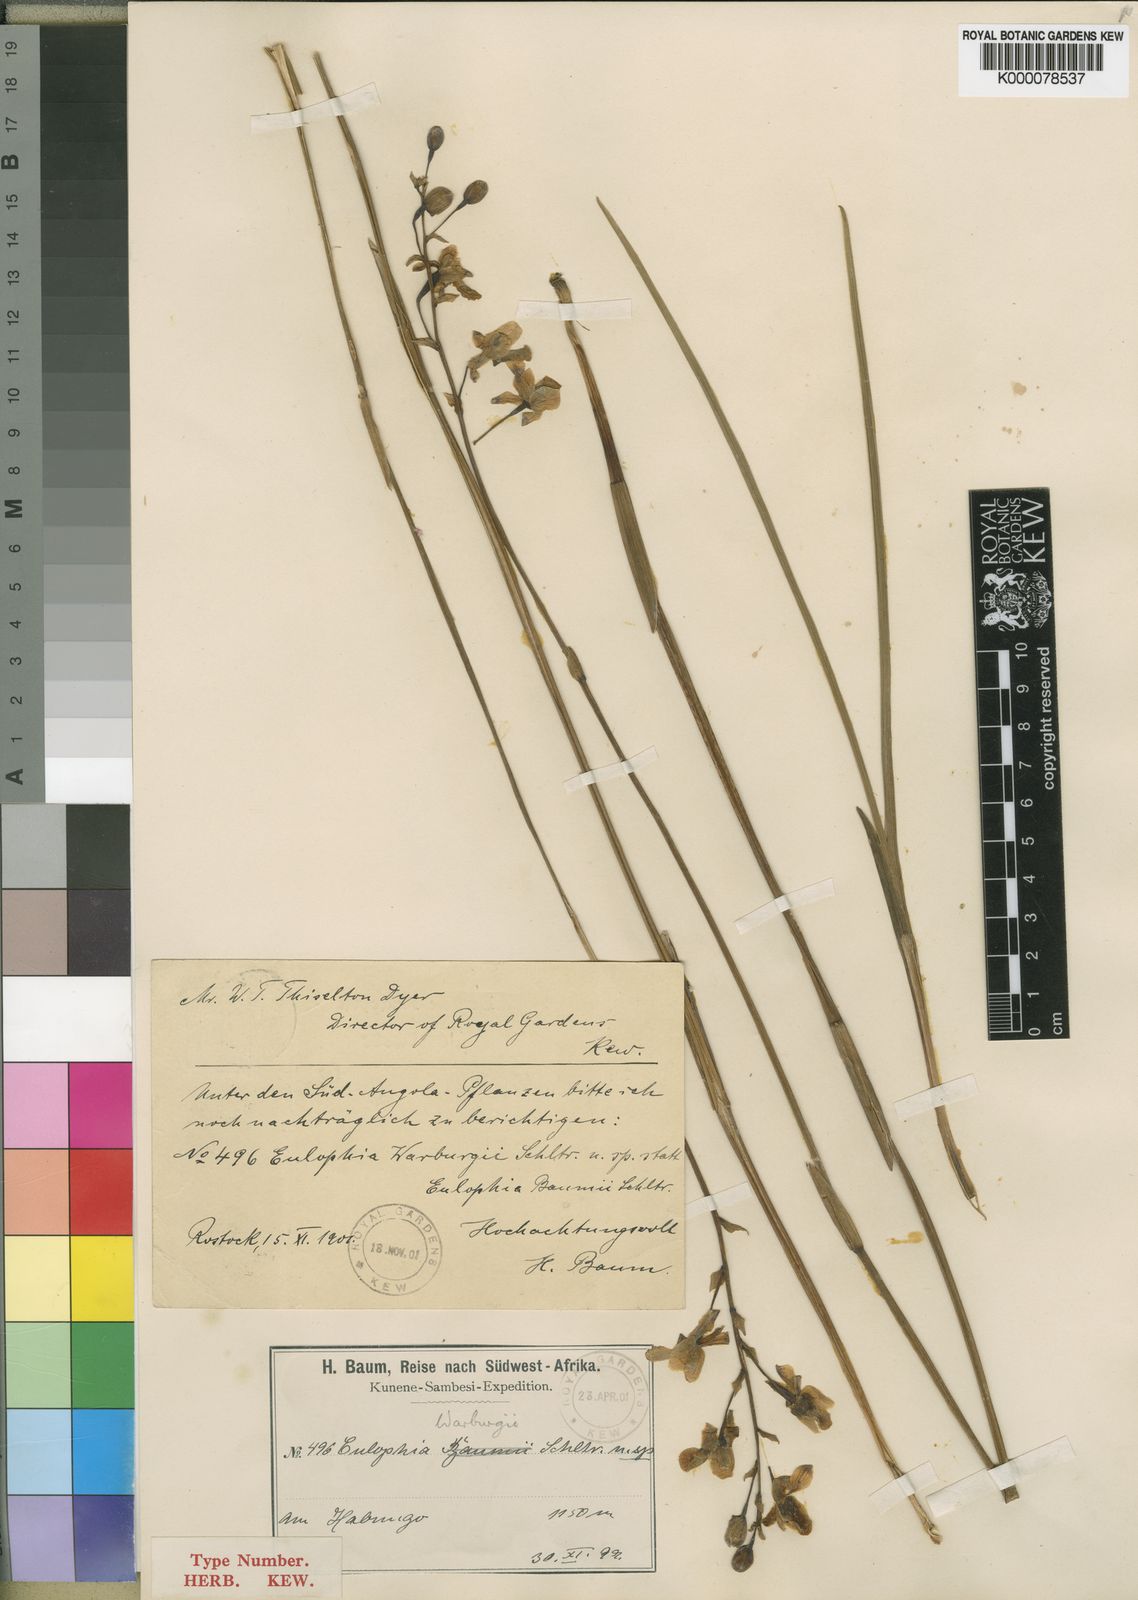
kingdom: Plantae
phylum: Tracheophyta
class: Liliopsida
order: Asparagales
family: Orchidaceae
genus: Eulophia
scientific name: Eulophia malangana
